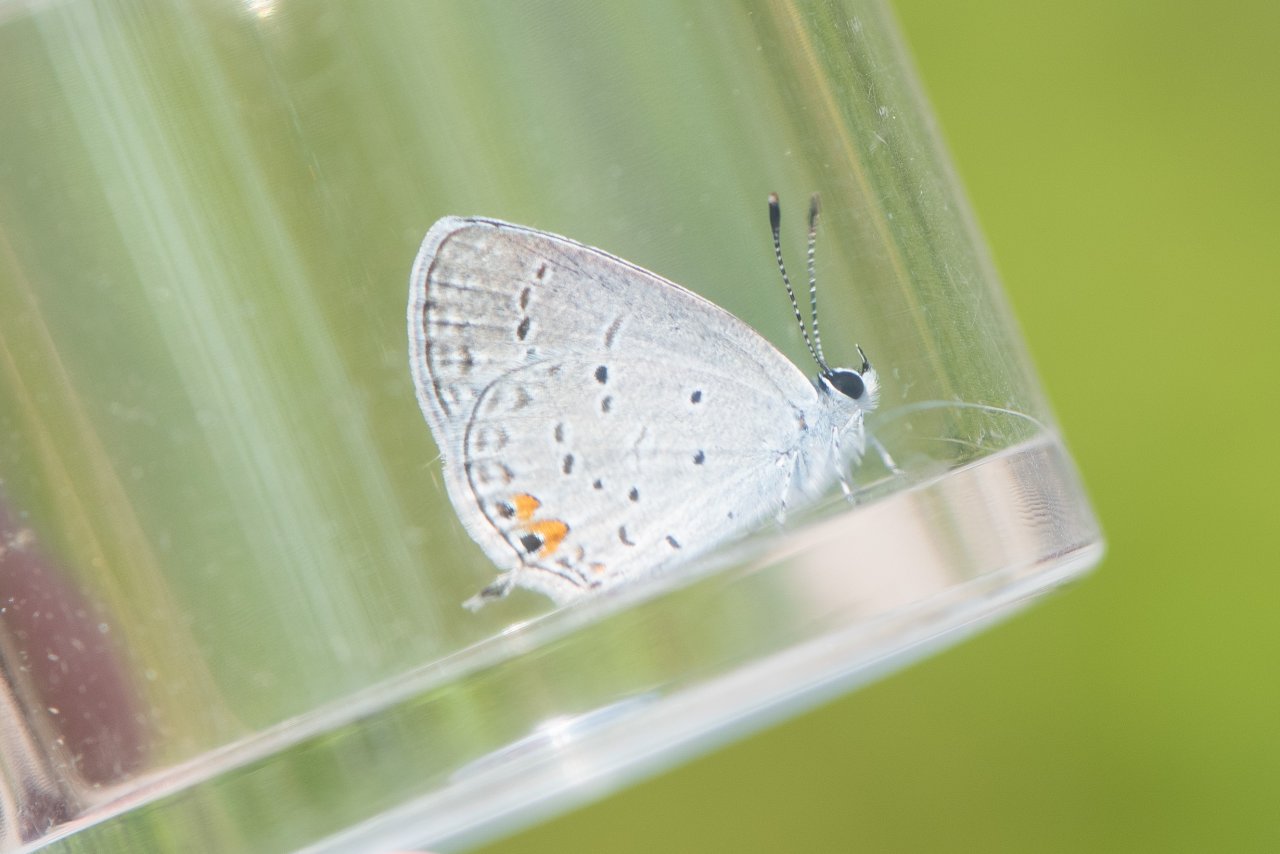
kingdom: Animalia
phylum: Arthropoda
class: Insecta
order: Lepidoptera
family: Lycaenidae
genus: Elkalyce
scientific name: Elkalyce comyntas
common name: Eastern Tailed-Blue
